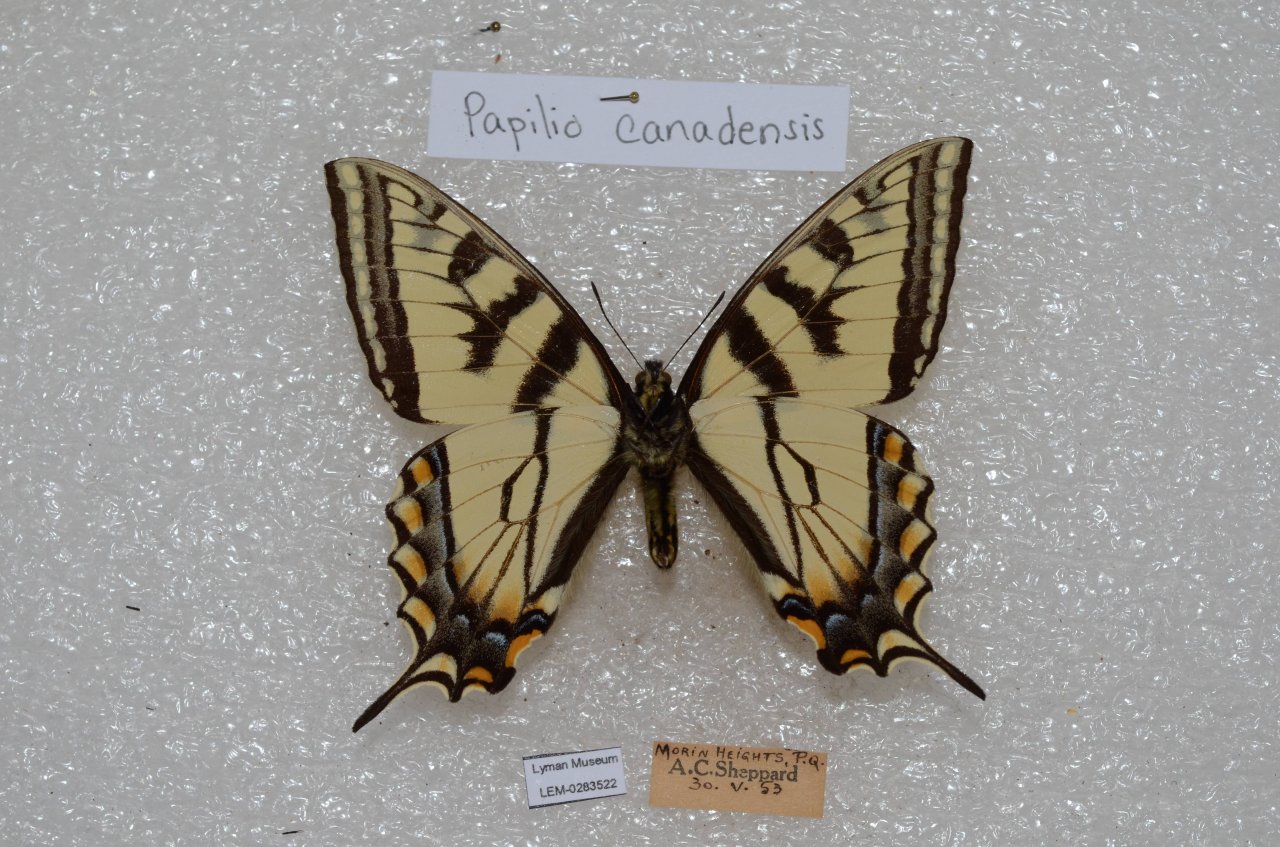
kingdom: Animalia
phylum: Arthropoda
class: Insecta
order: Lepidoptera
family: Papilionidae
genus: Pterourus
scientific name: Pterourus canadensis
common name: Canadian Tiger Swallowtail
